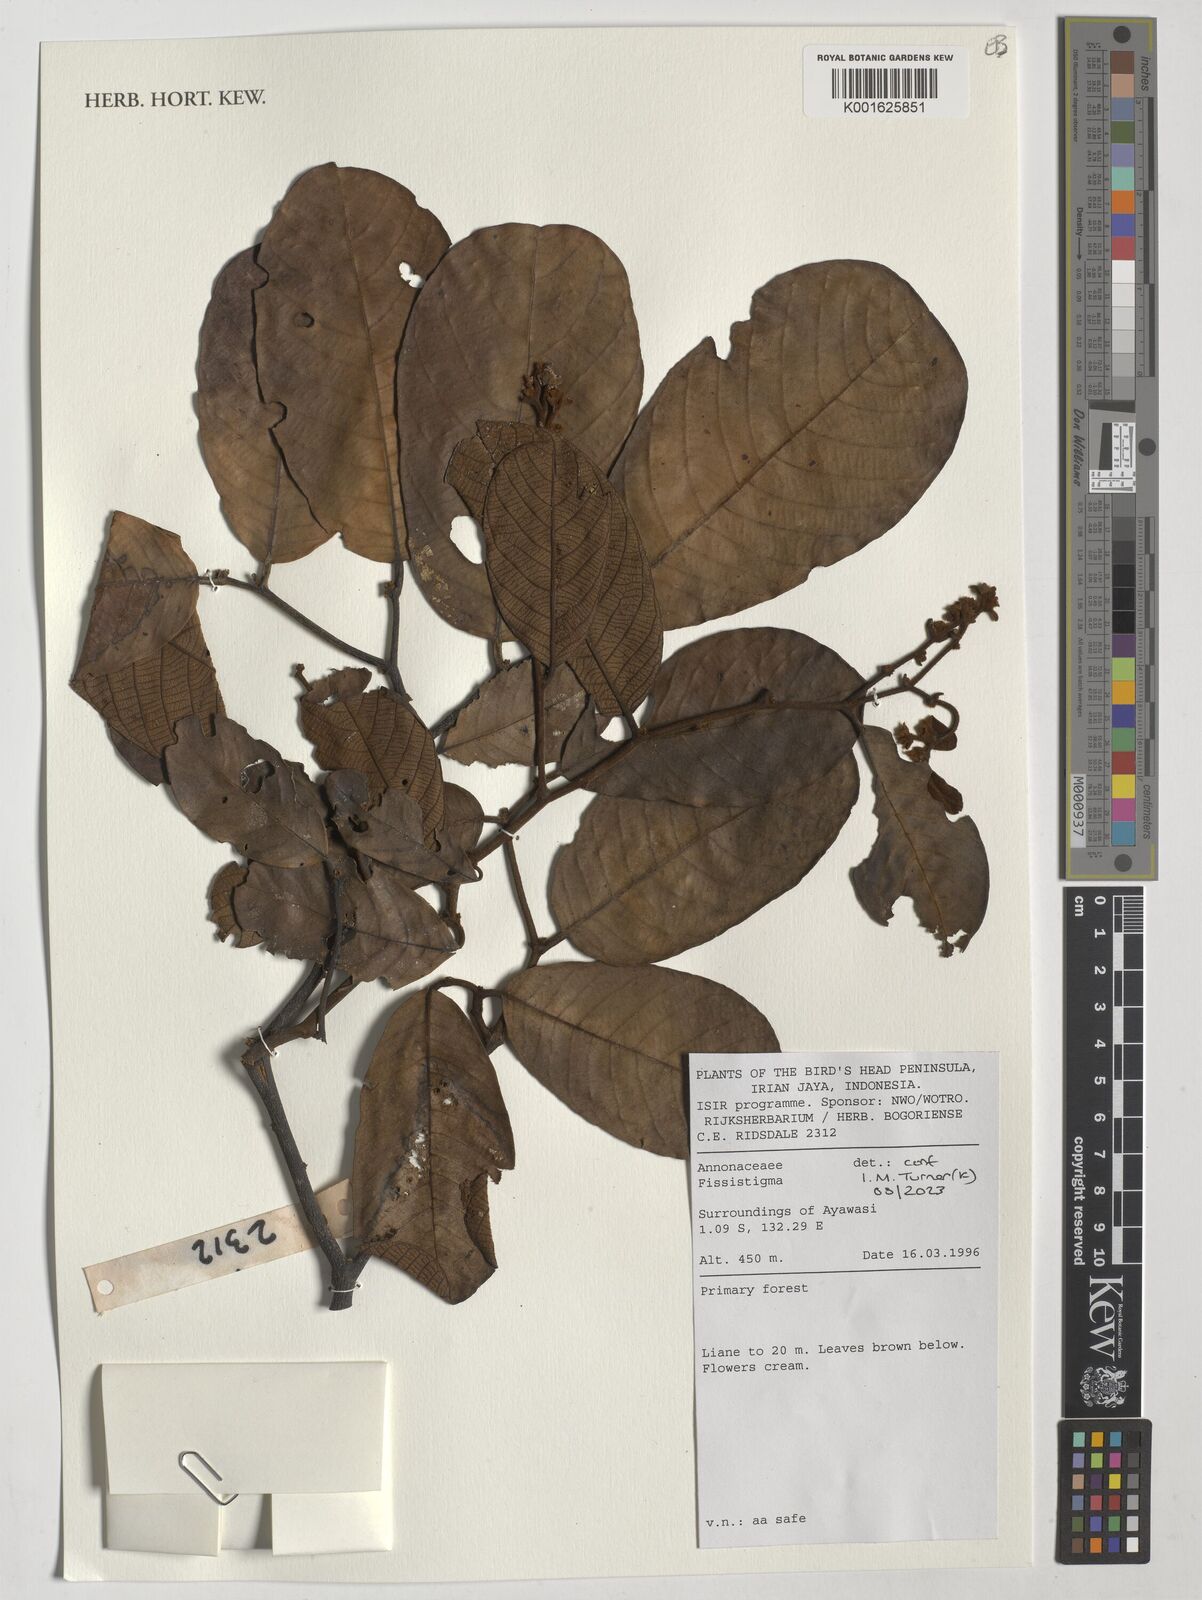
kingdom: Plantae
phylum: Tracheophyta
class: Magnoliopsida
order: Magnoliales
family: Annonaceae
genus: Fissistigma
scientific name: Fissistigma
